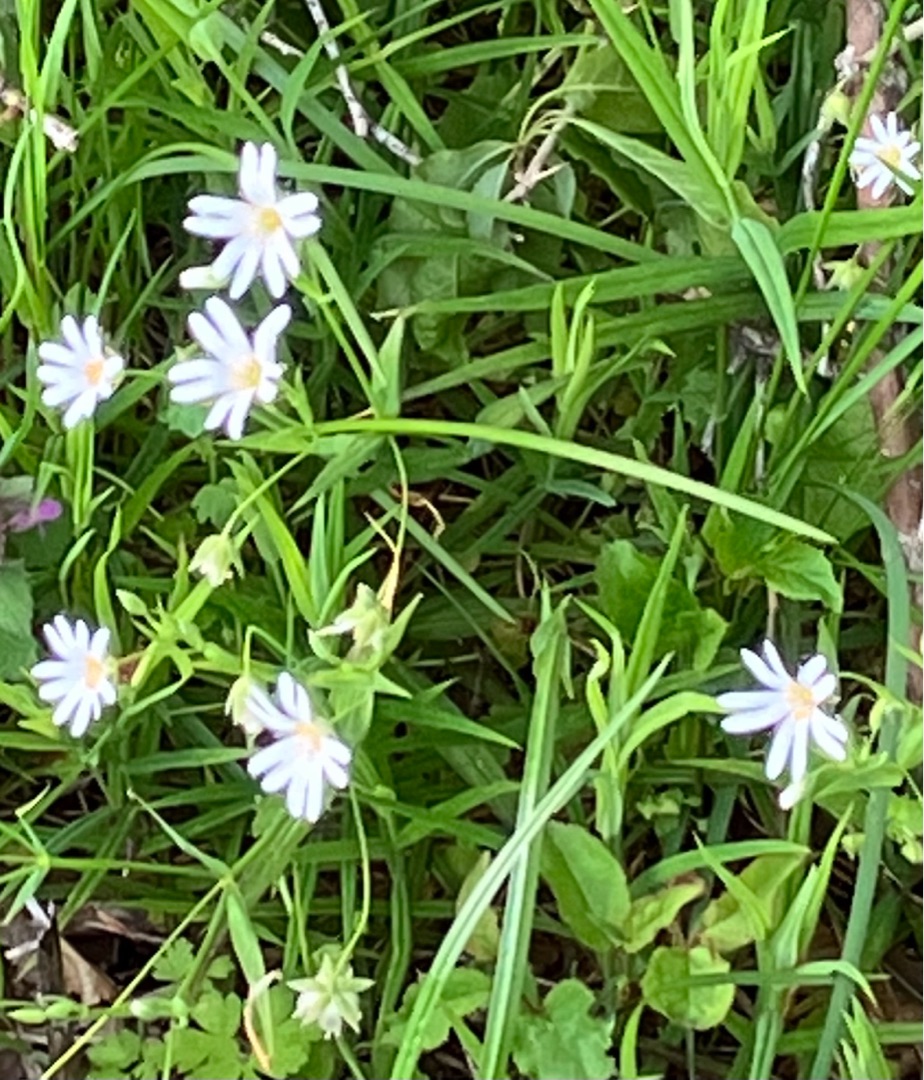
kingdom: Plantae
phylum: Tracheophyta
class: Magnoliopsida
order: Caryophyllales
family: Caryophyllaceae
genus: Stellaria
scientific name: Stellaria graminea
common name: Græsbladet fladstjerne
